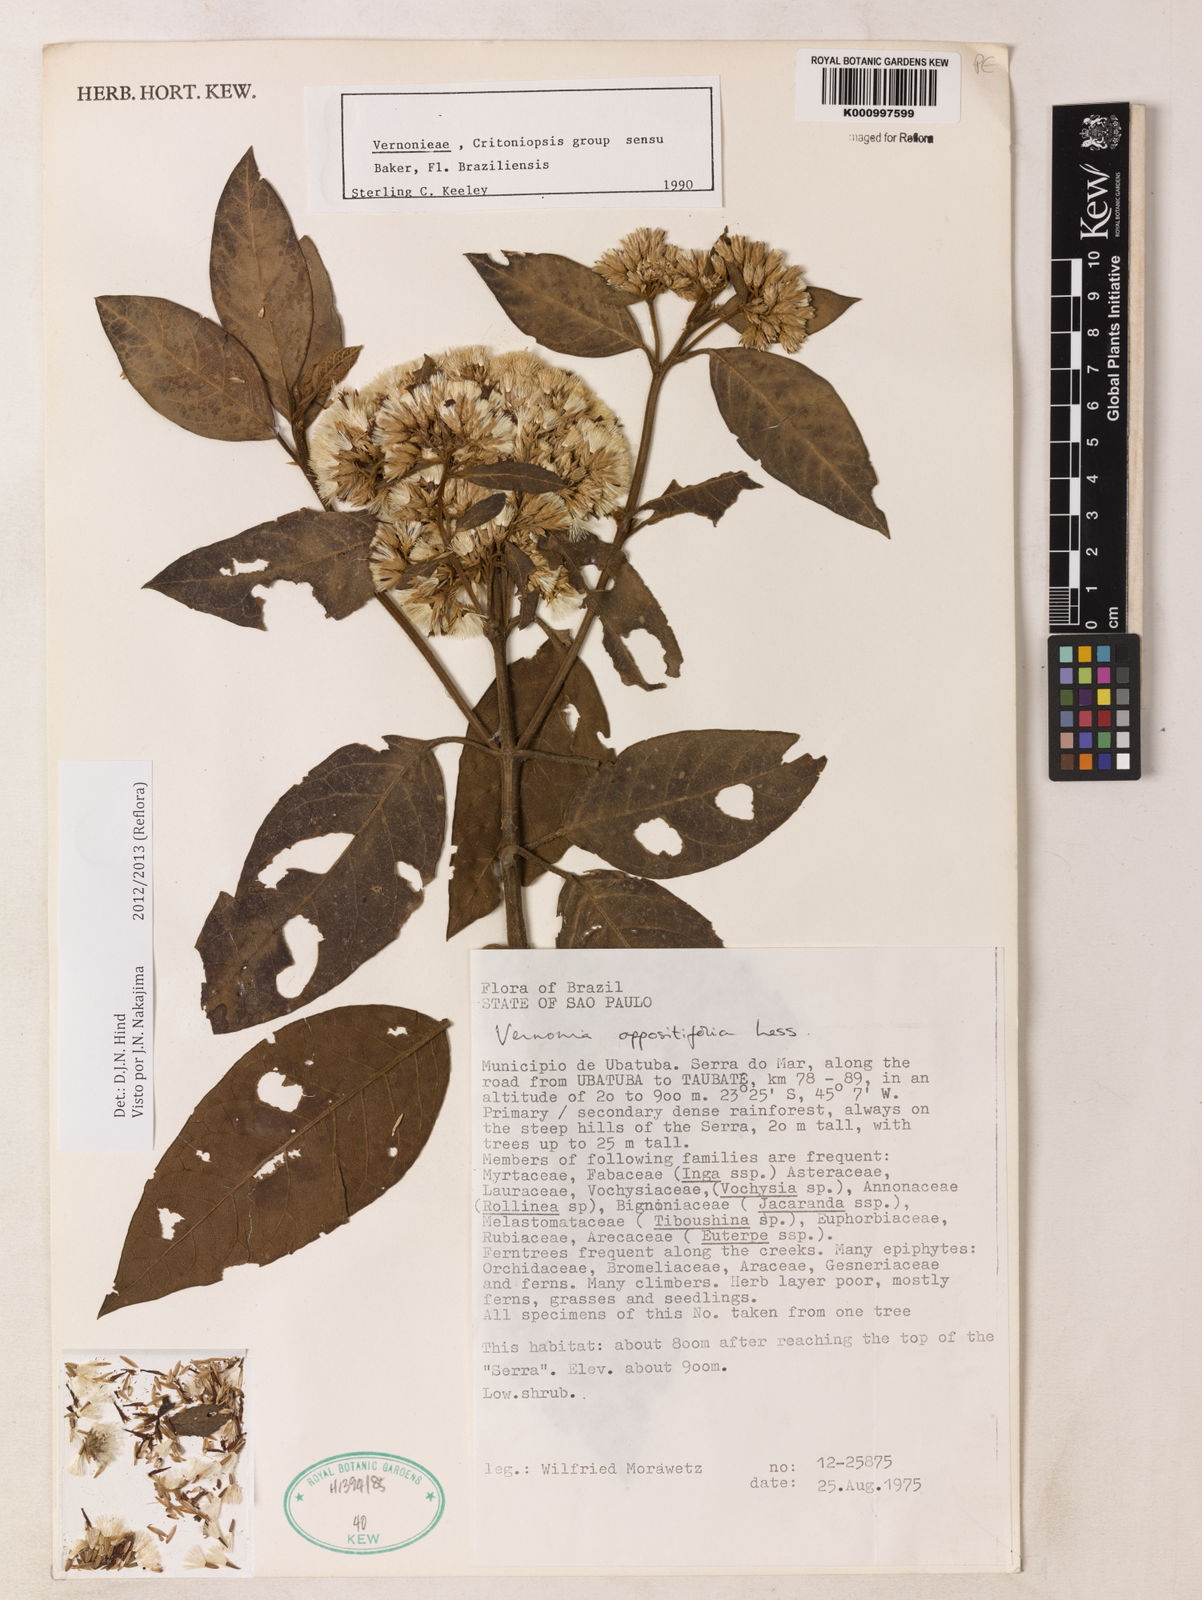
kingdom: Plantae
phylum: Tracheophyta
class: Magnoliopsida
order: Asterales
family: Asteraceae
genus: Critoniopsis
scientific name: Critoniopsis stellata
